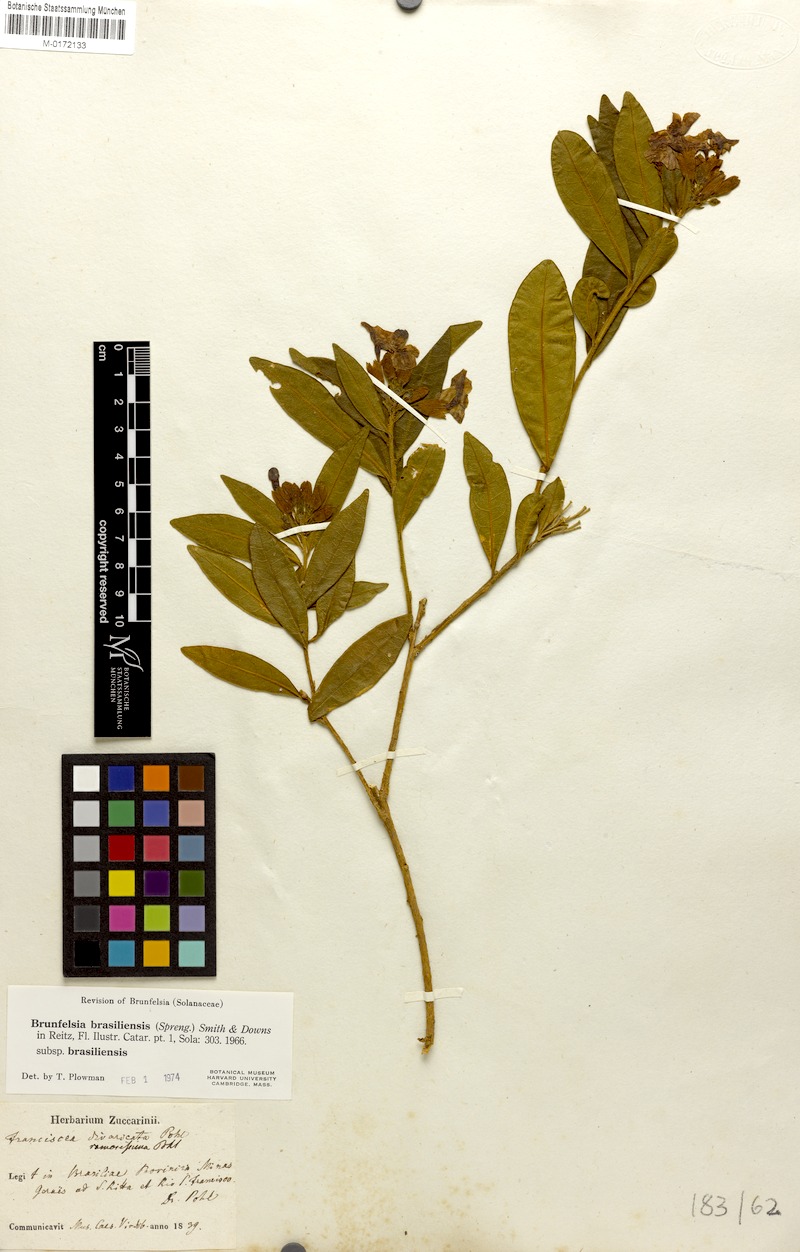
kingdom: Plantae
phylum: Tracheophyta
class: Magnoliopsida
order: Solanales
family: Solanaceae
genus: Brunfelsia
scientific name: Brunfelsia brasiliensis
